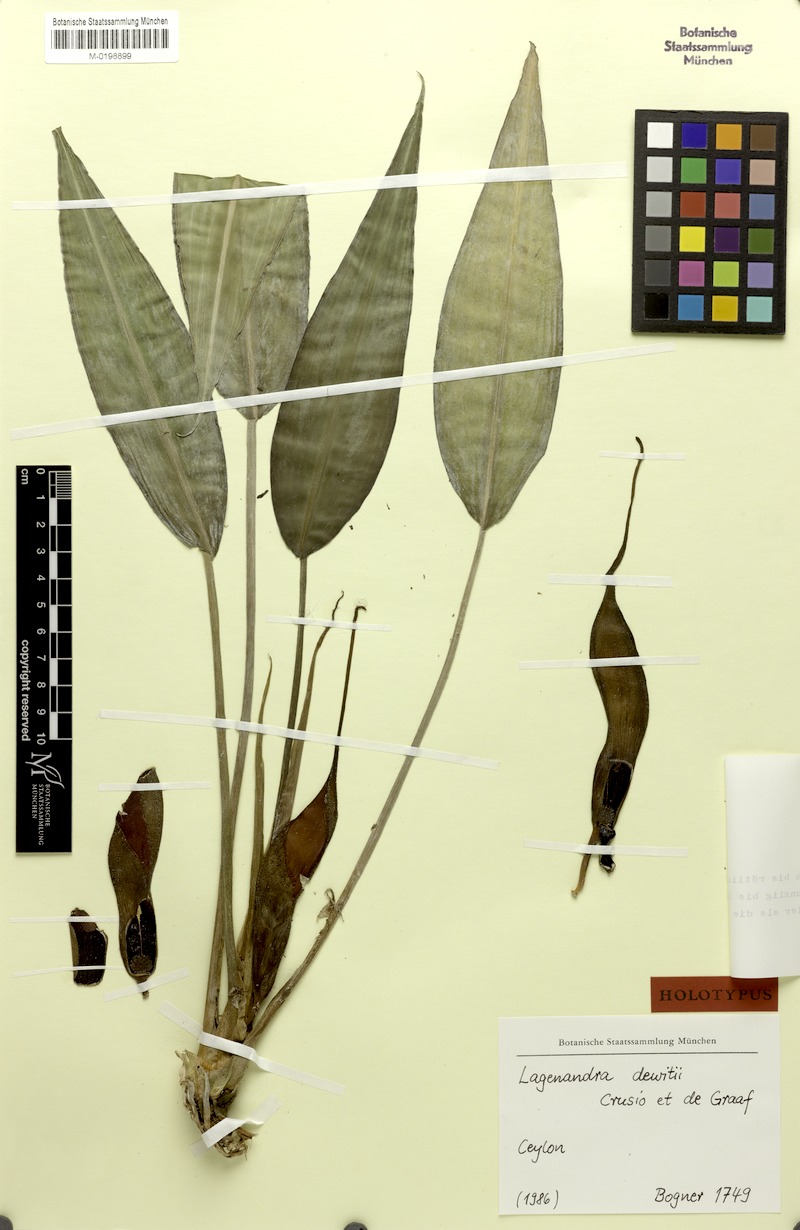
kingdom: Plantae
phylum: Tracheophyta
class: Liliopsida
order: Alismatales
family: Araceae
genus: Lagenandra
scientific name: Lagenandra dewitii
